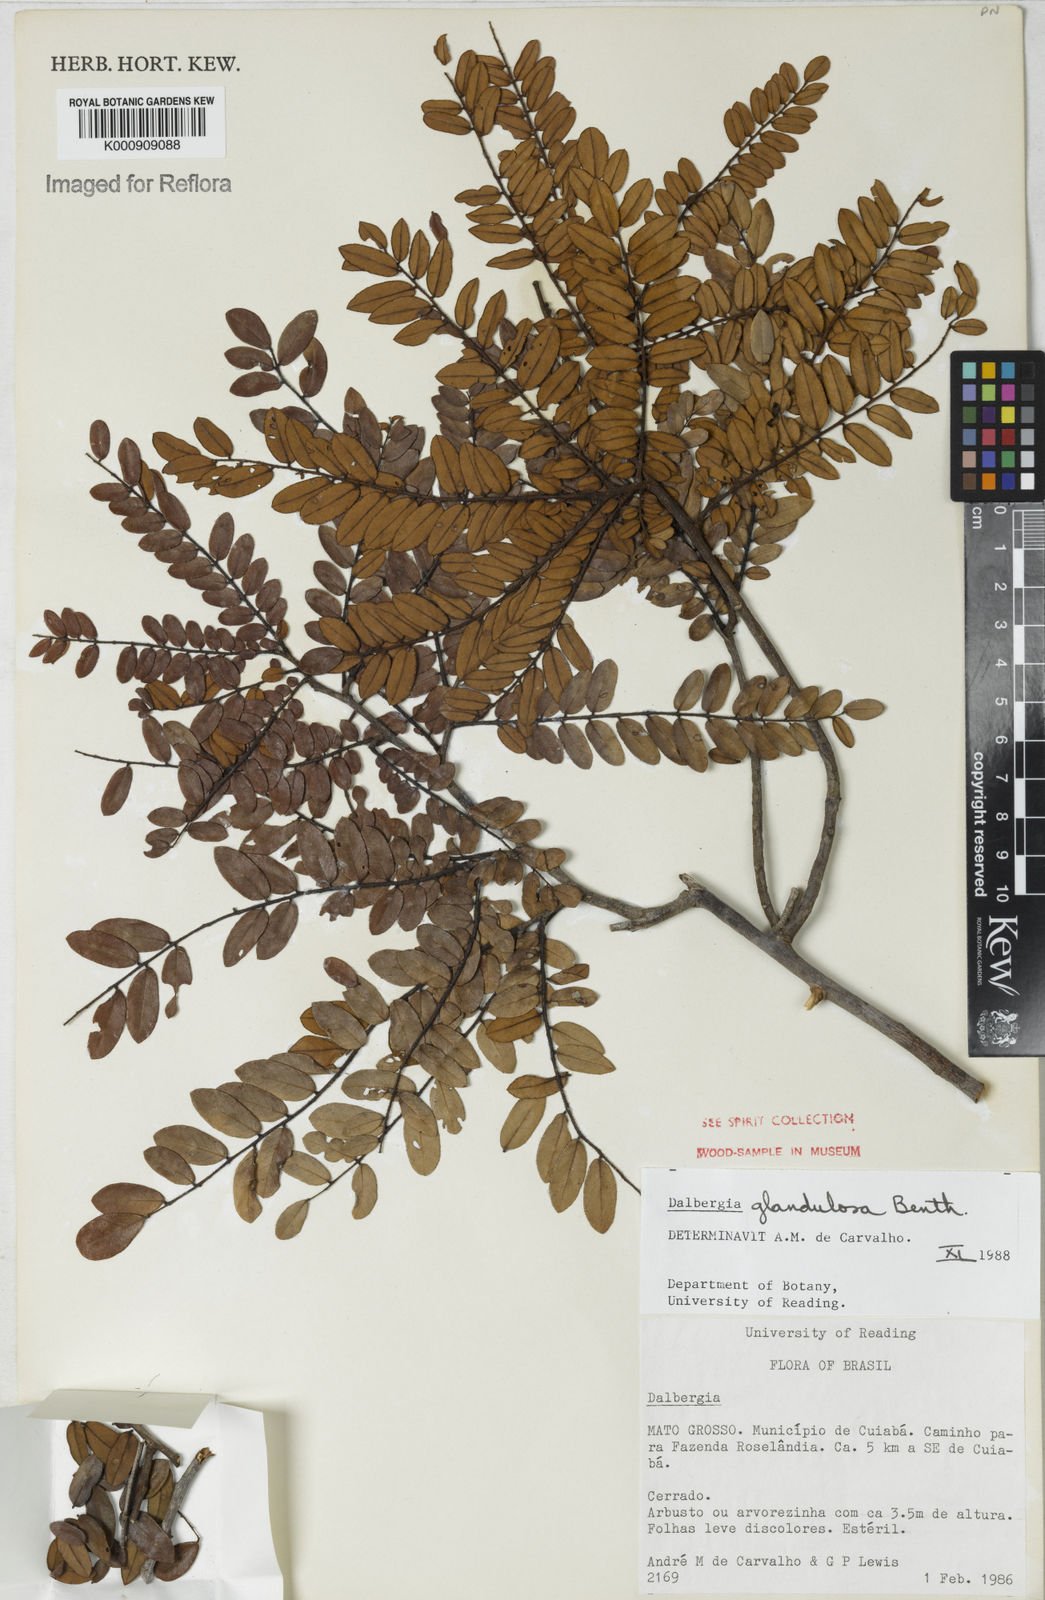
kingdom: Plantae
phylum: Tracheophyta
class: Magnoliopsida
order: Fabales
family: Fabaceae
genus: Dalbergia
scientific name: Dalbergia glandulosa
